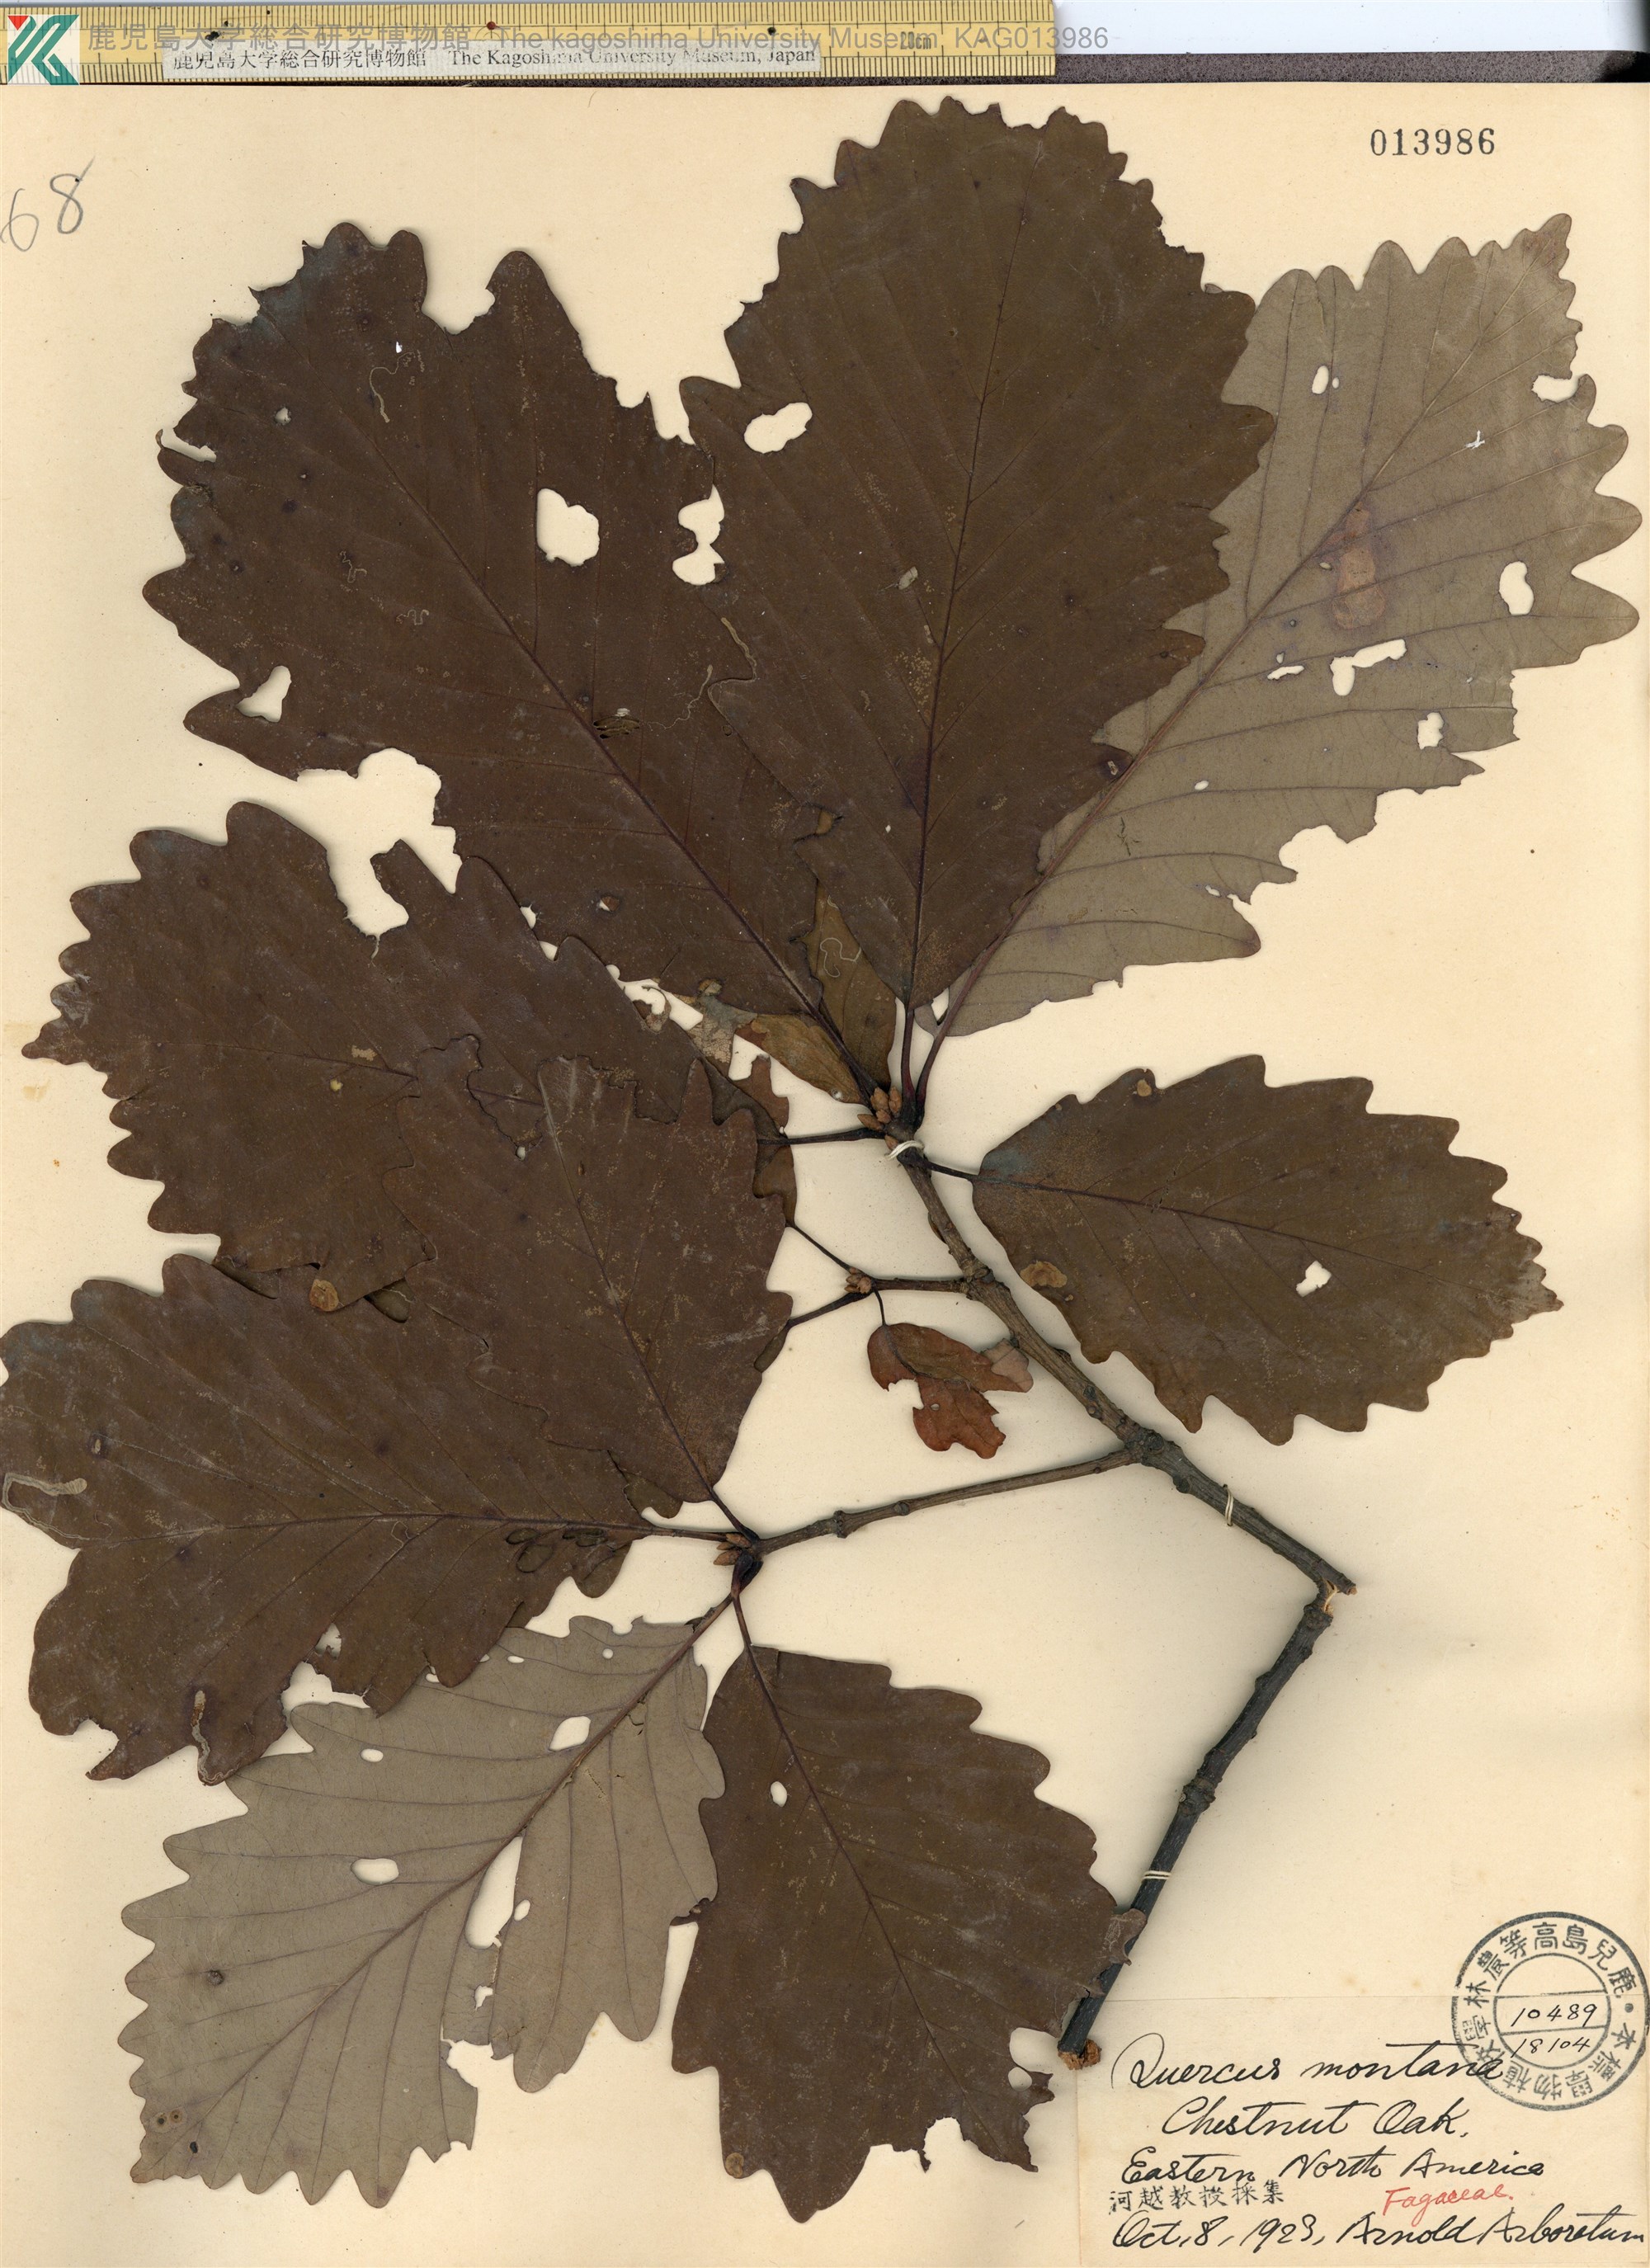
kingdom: Plantae
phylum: Tracheophyta
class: Magnoliopsida
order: Fagales
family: Fagaceae
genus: Quercus
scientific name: Quercus montana
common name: Chestnut oak
